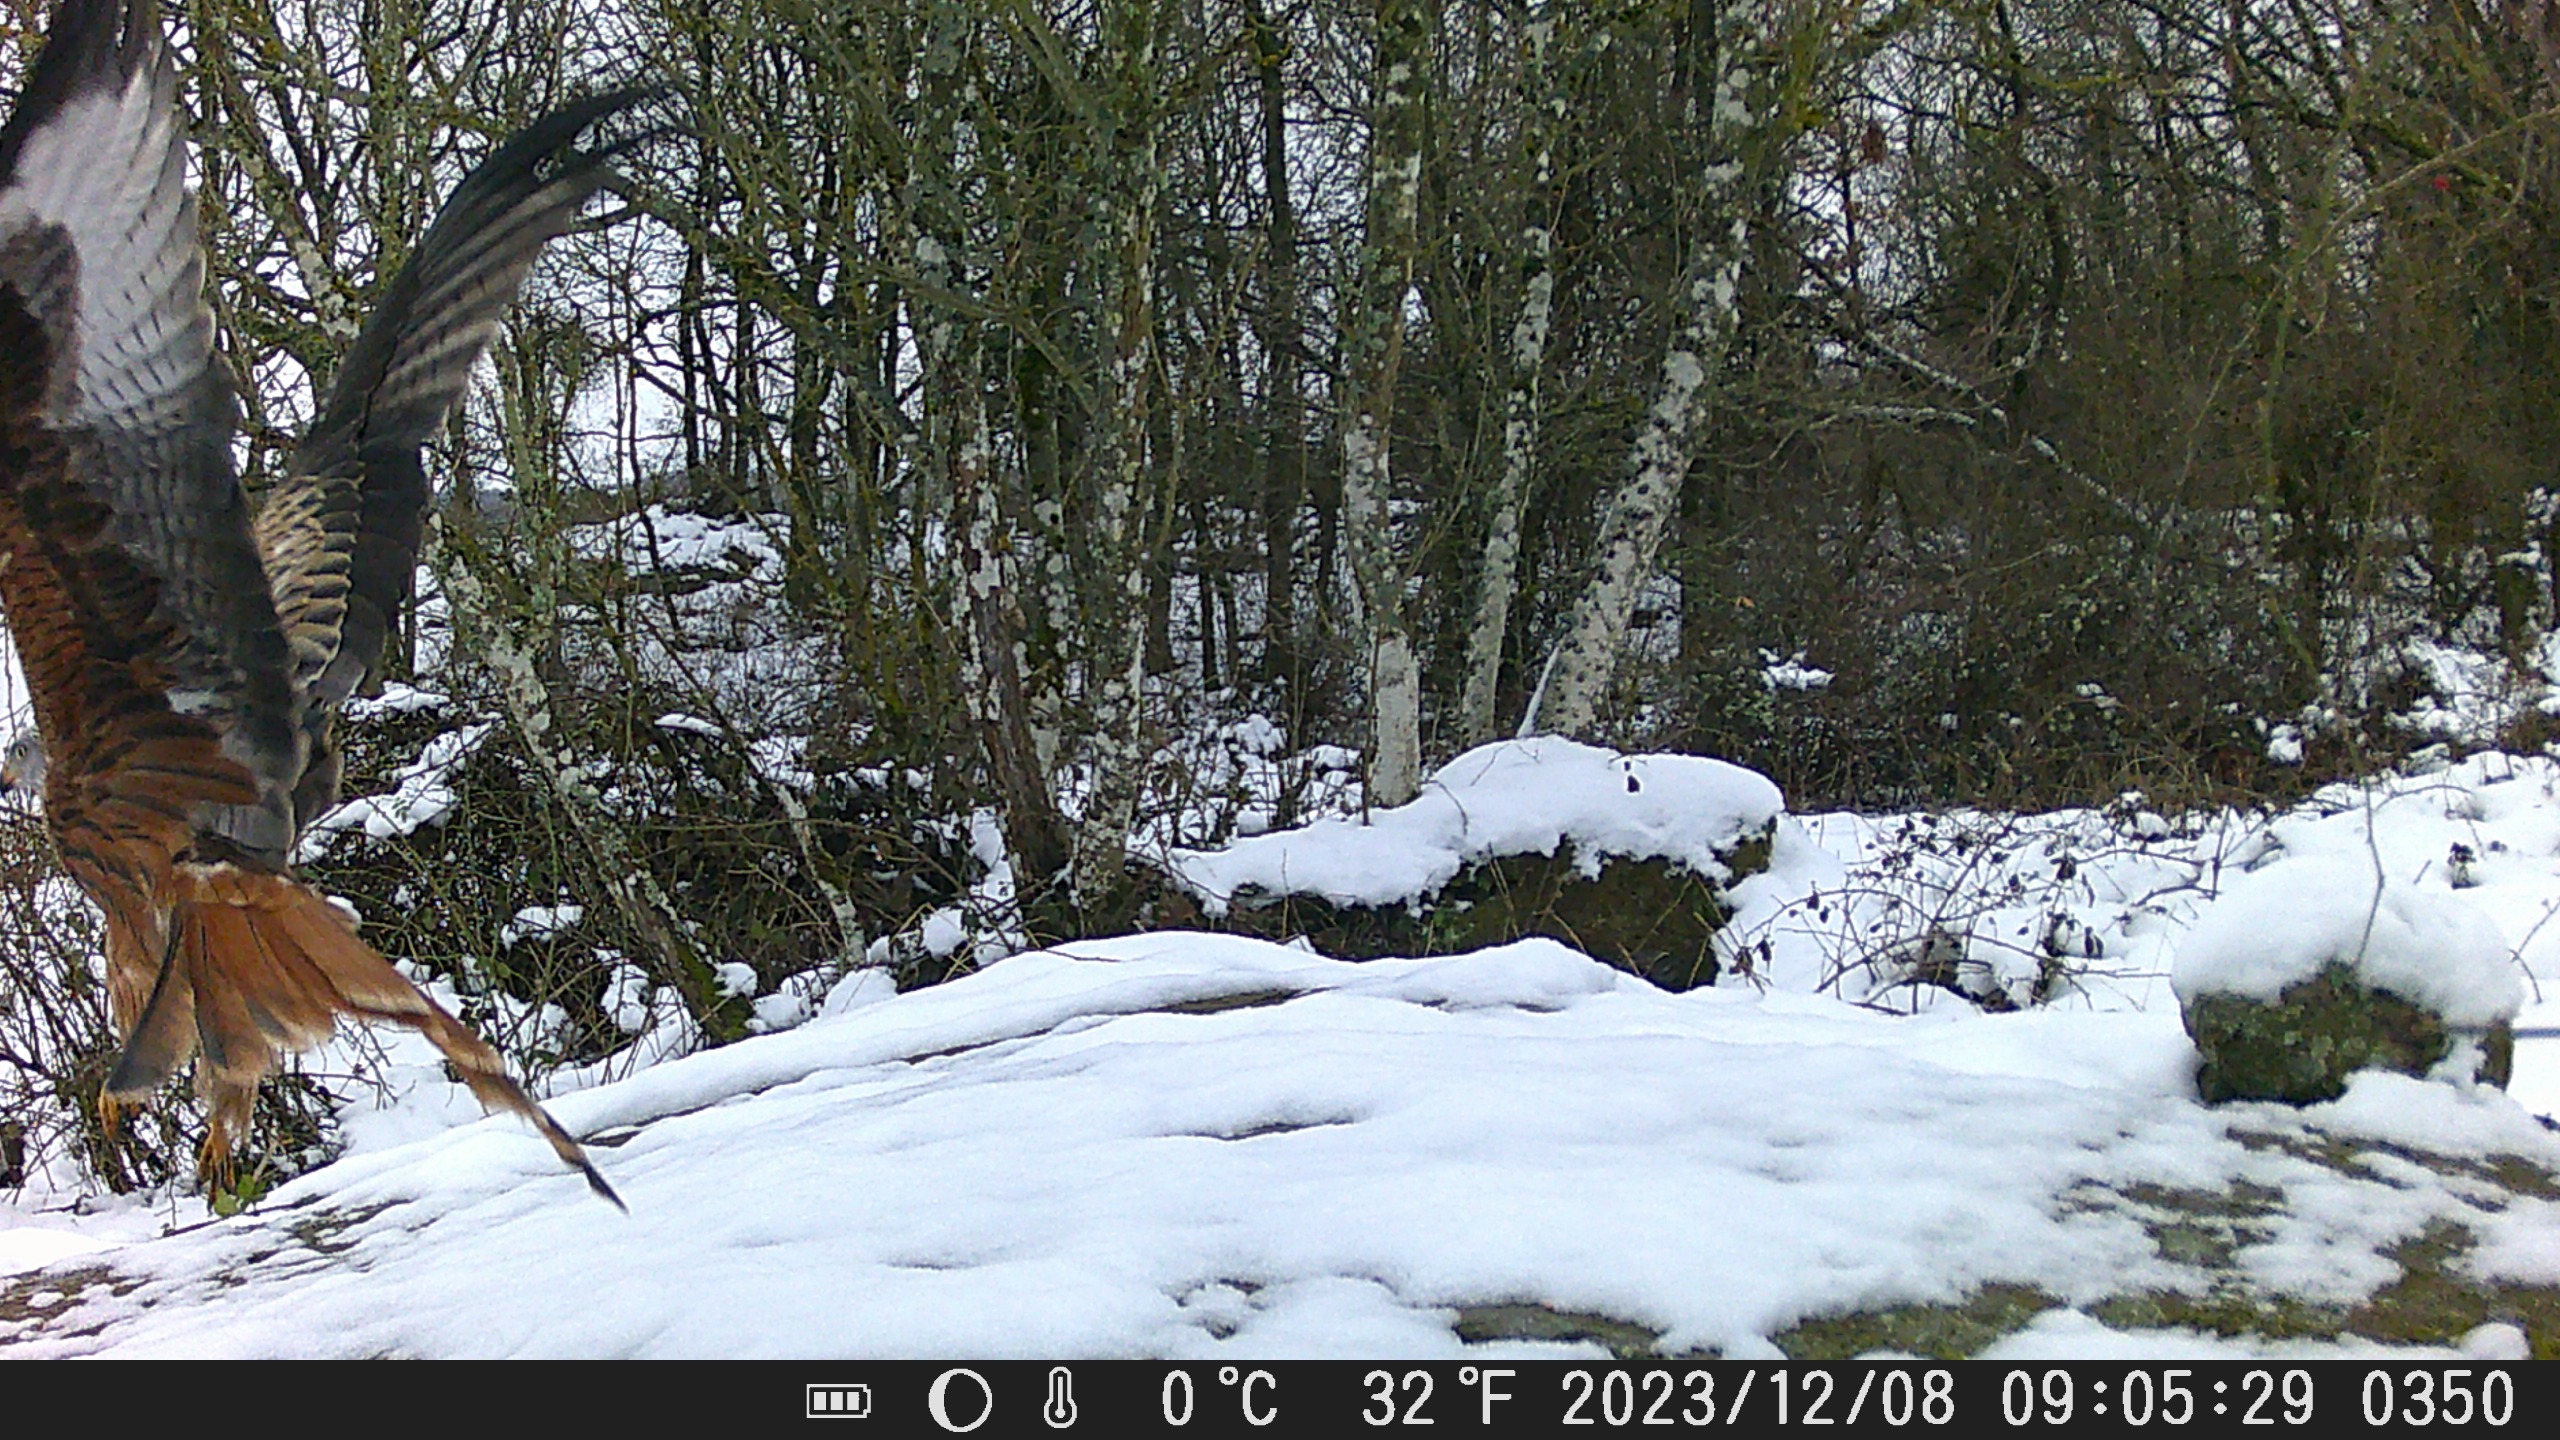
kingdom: Animalia
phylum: Chordata
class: Aves
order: Accipitriformes
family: Accipitridae
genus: Milvus
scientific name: Milvus milvus
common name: Rød glente
